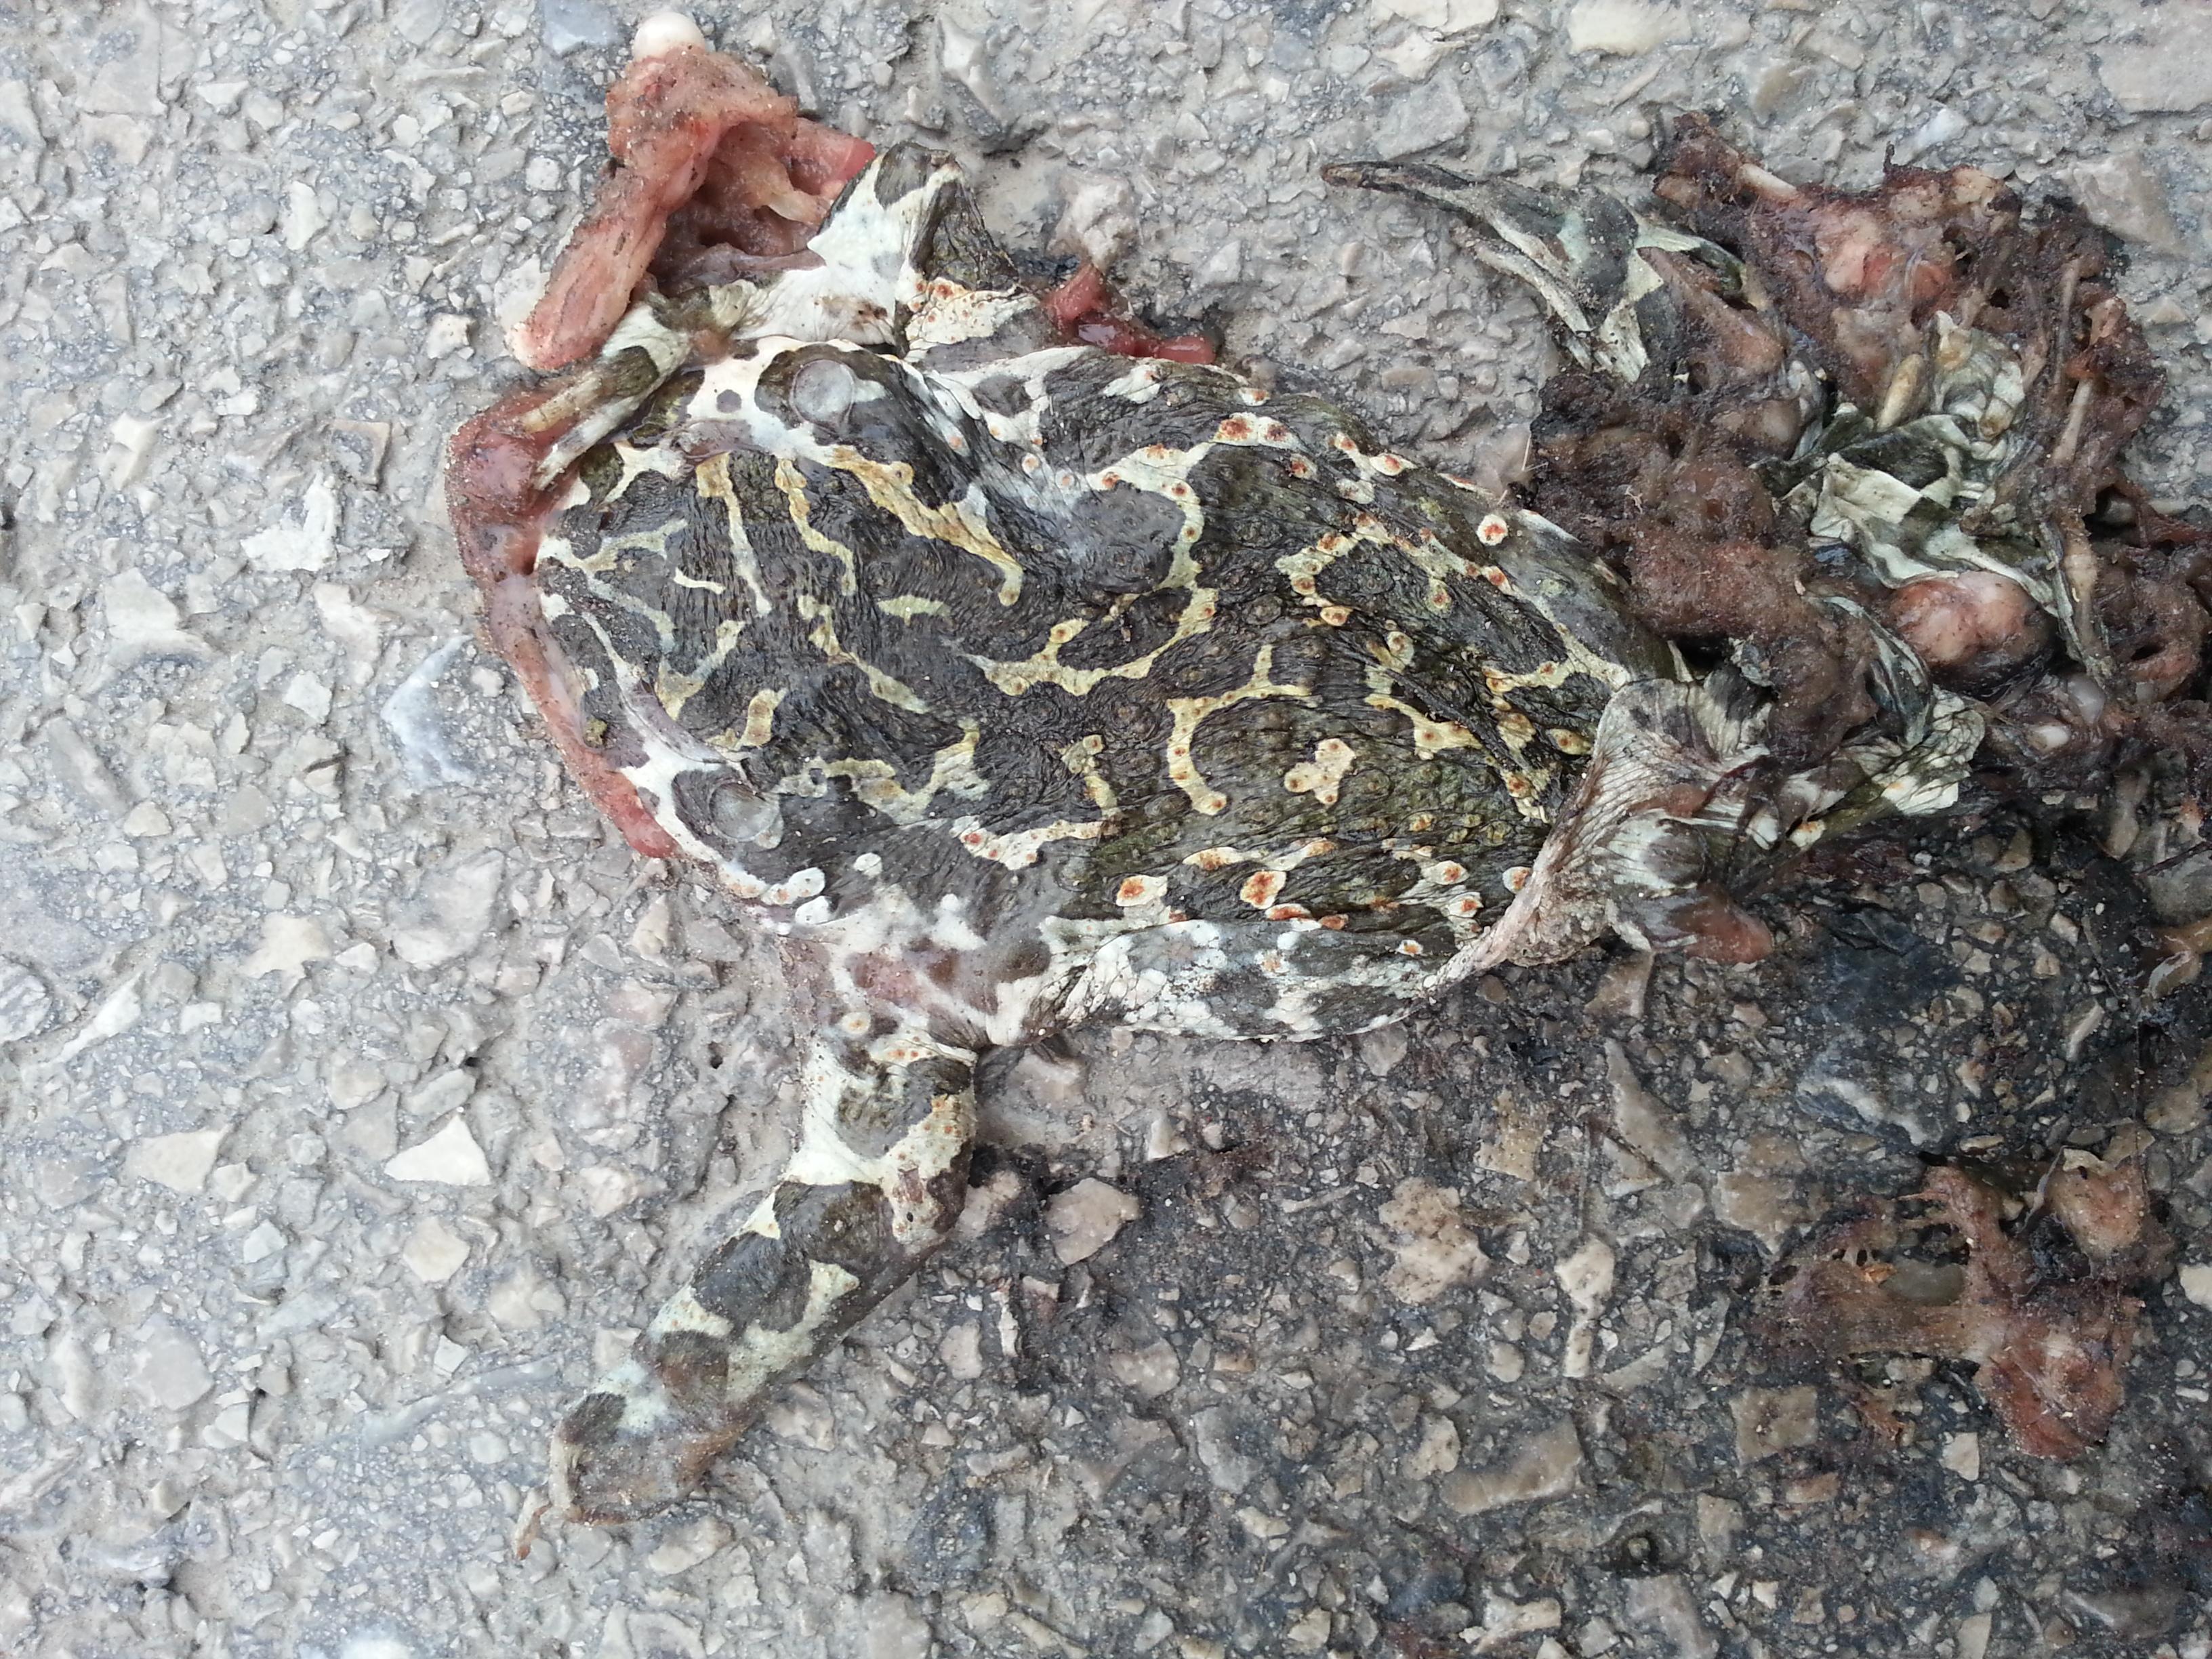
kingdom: Animalia
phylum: Chordata
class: Amphibia
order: Anura
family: Bufonidae
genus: Bufotes
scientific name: Bufotes viridis
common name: European green toad
